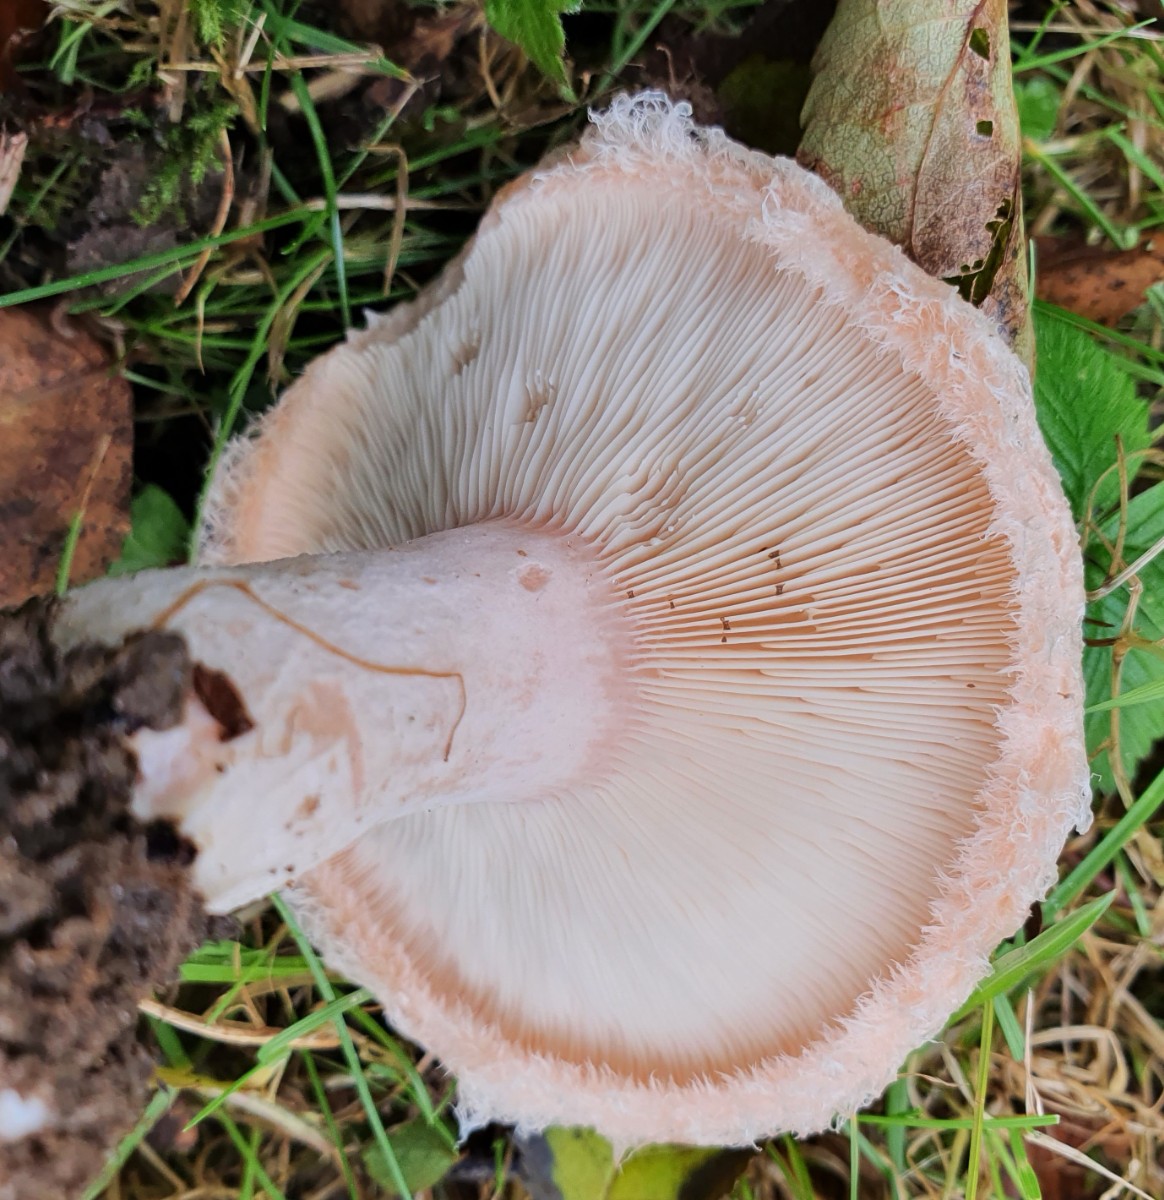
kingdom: Fungi
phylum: Basidiomycota
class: Agaricomycetes
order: Russulales
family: Russulaceae
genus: Lactarius
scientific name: Lactarius pubescens
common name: dunet mælkehat
